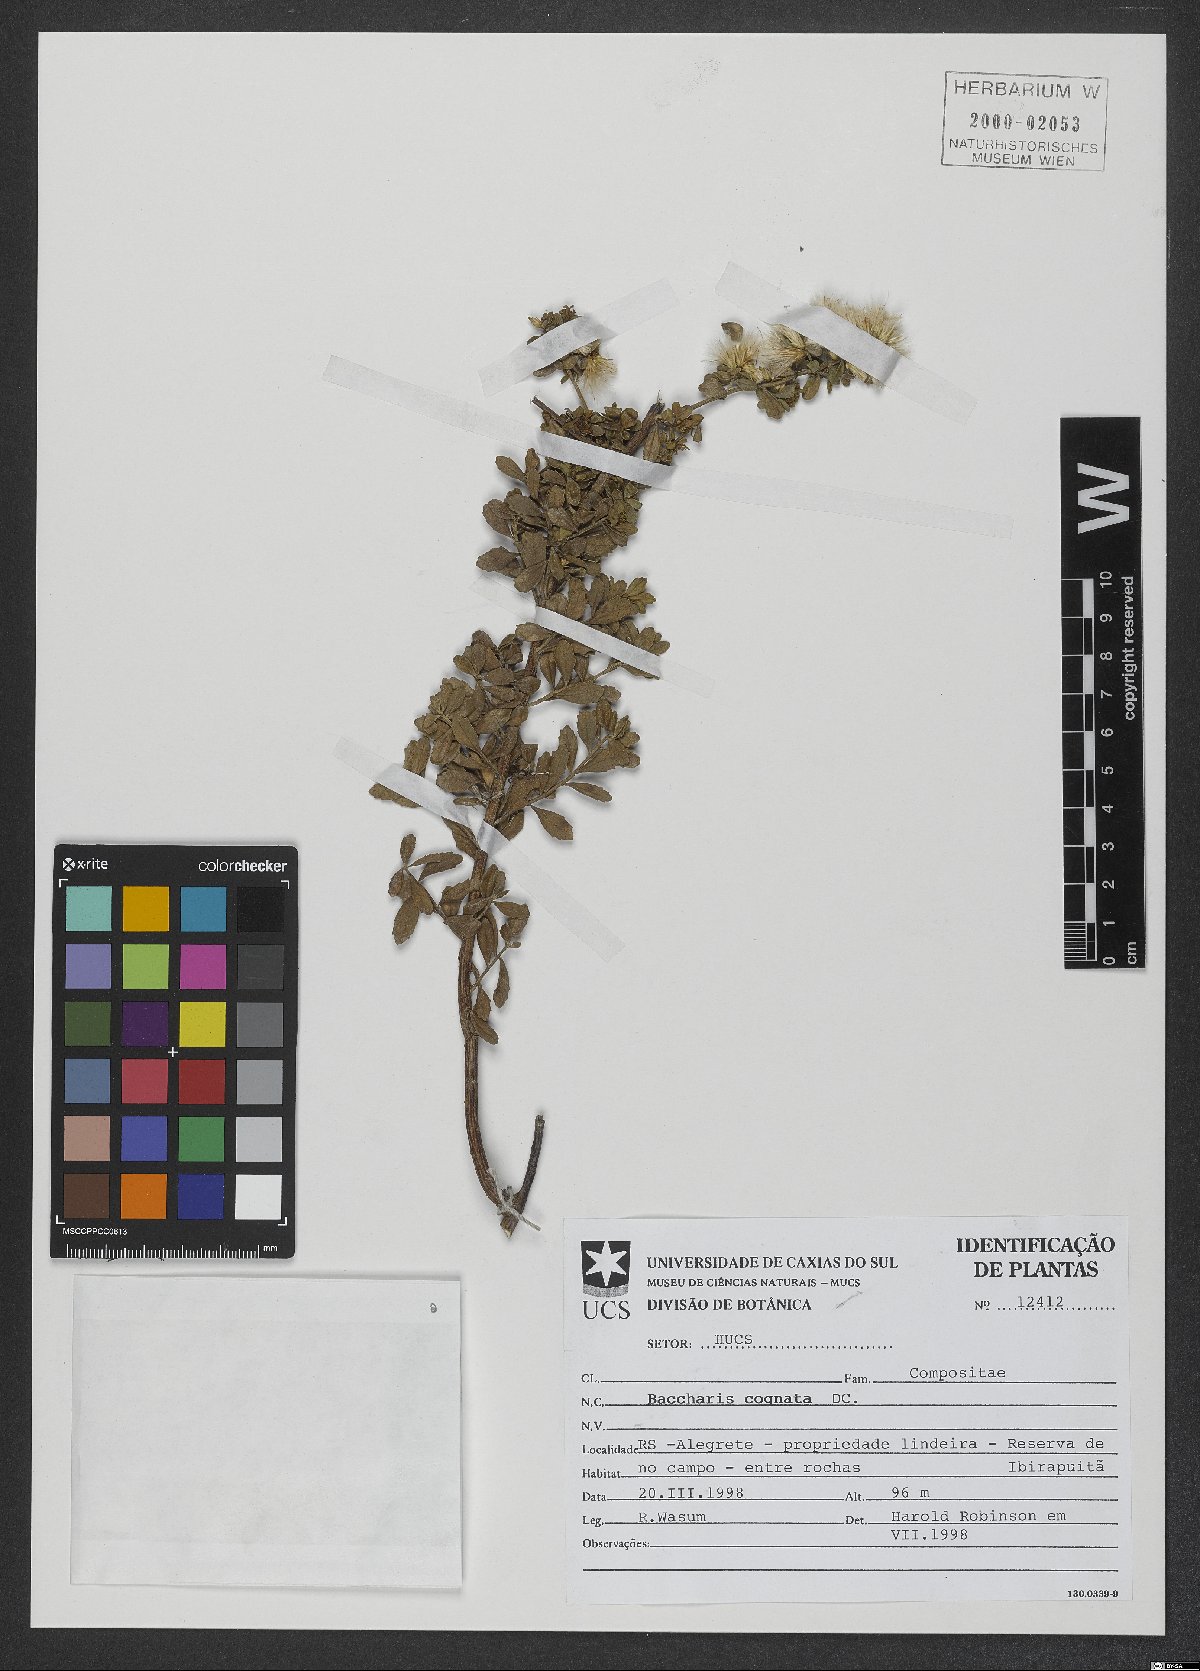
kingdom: Plantae
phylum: Tracheophyta
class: Magnoliopsida
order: Asterales
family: Asteraceae
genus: Baccharis
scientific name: Baccharis cognata
